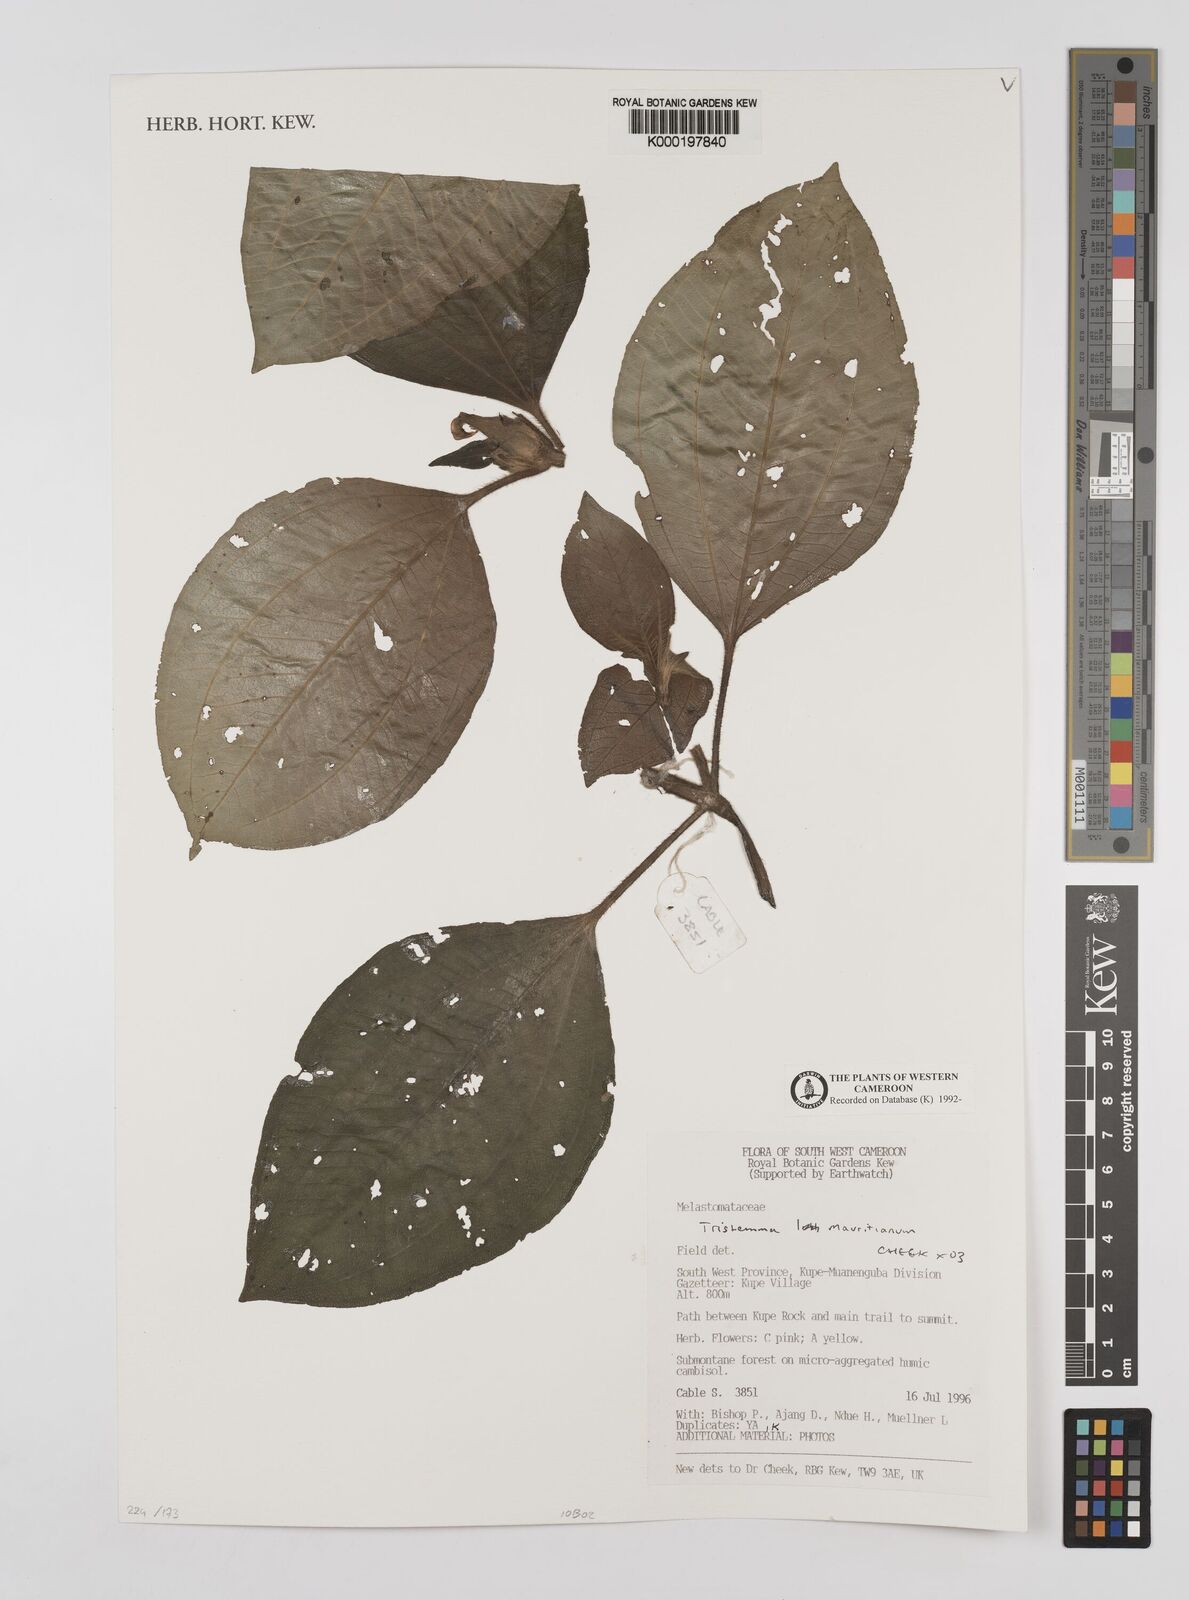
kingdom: Plantae
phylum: Tracheophyta
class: Magnoliopsida
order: Myrtales
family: Melastomataceae
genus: Tristemma
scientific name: Tristemma
